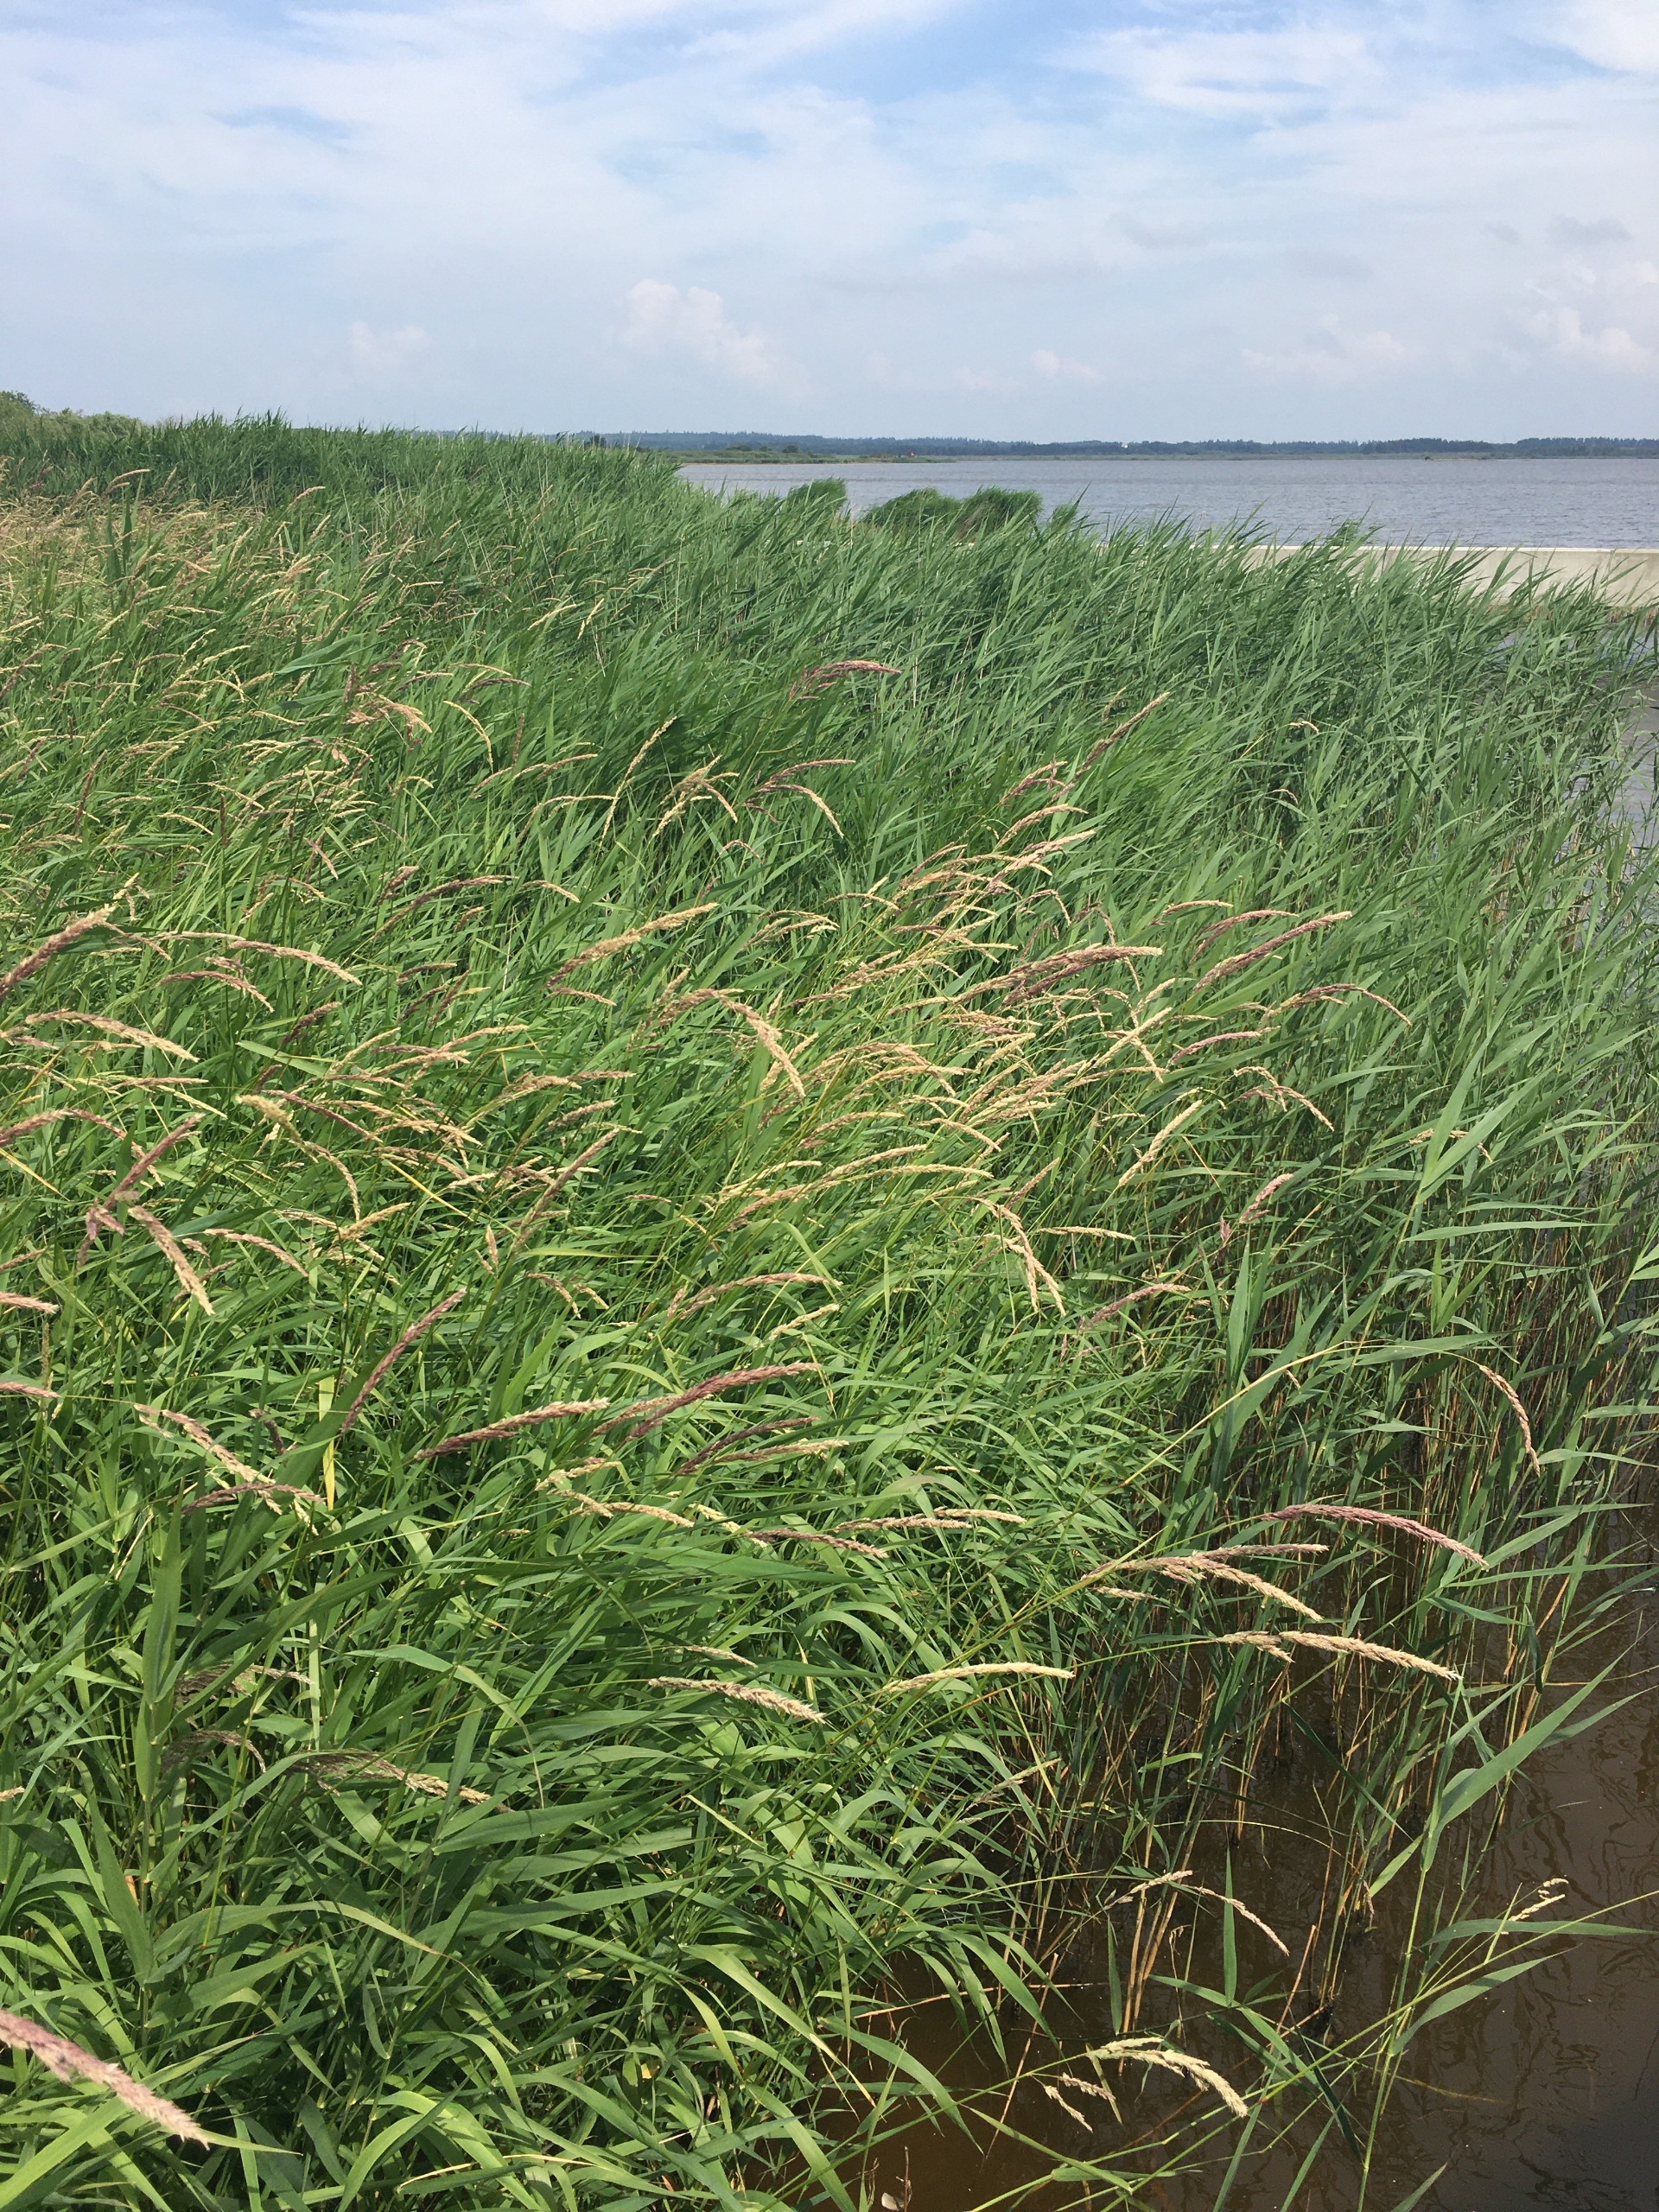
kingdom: Plantae
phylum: Tracheophyta
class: Liliopsida
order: Poales
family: Poaceae
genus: Phalaris
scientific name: Phalaris arundinacea
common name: Rørgræs
